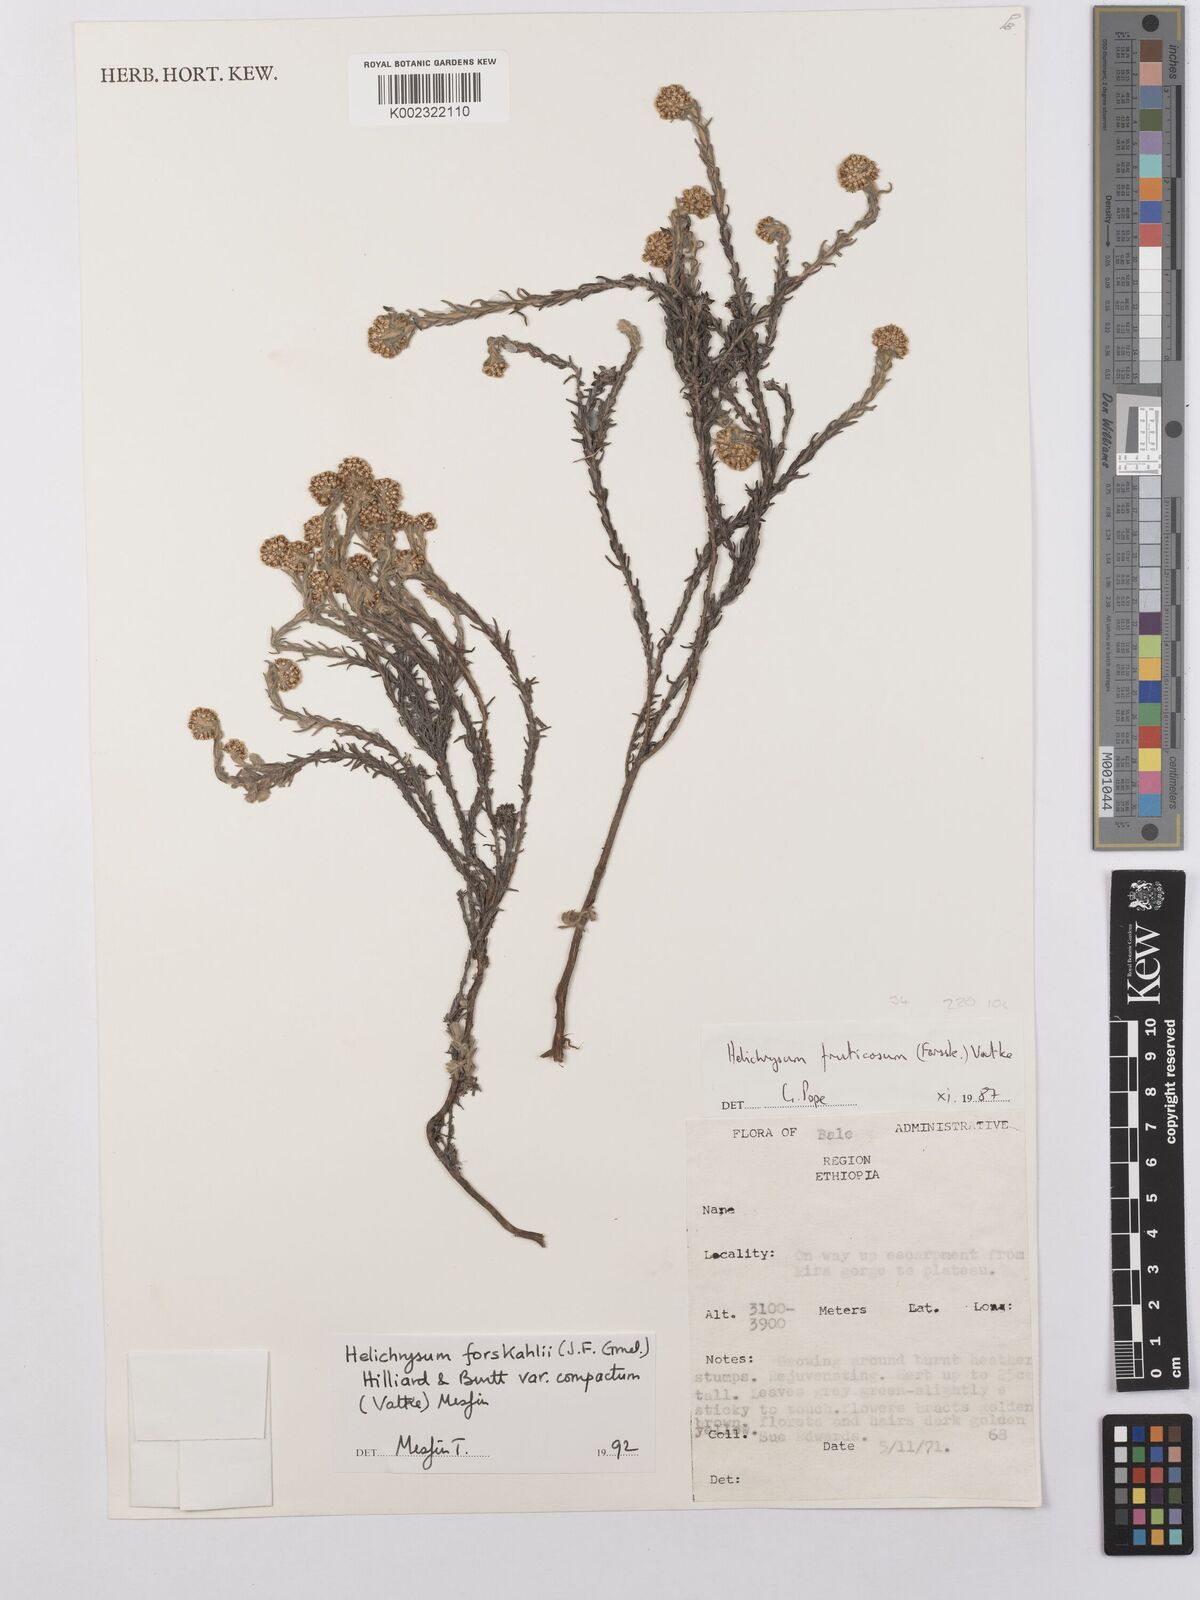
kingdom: Plantae
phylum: Tracheophyta
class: Magnoliopsida
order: Asterales
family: Asteraceae
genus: Helichrysum
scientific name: Helichrysum forskahlii
